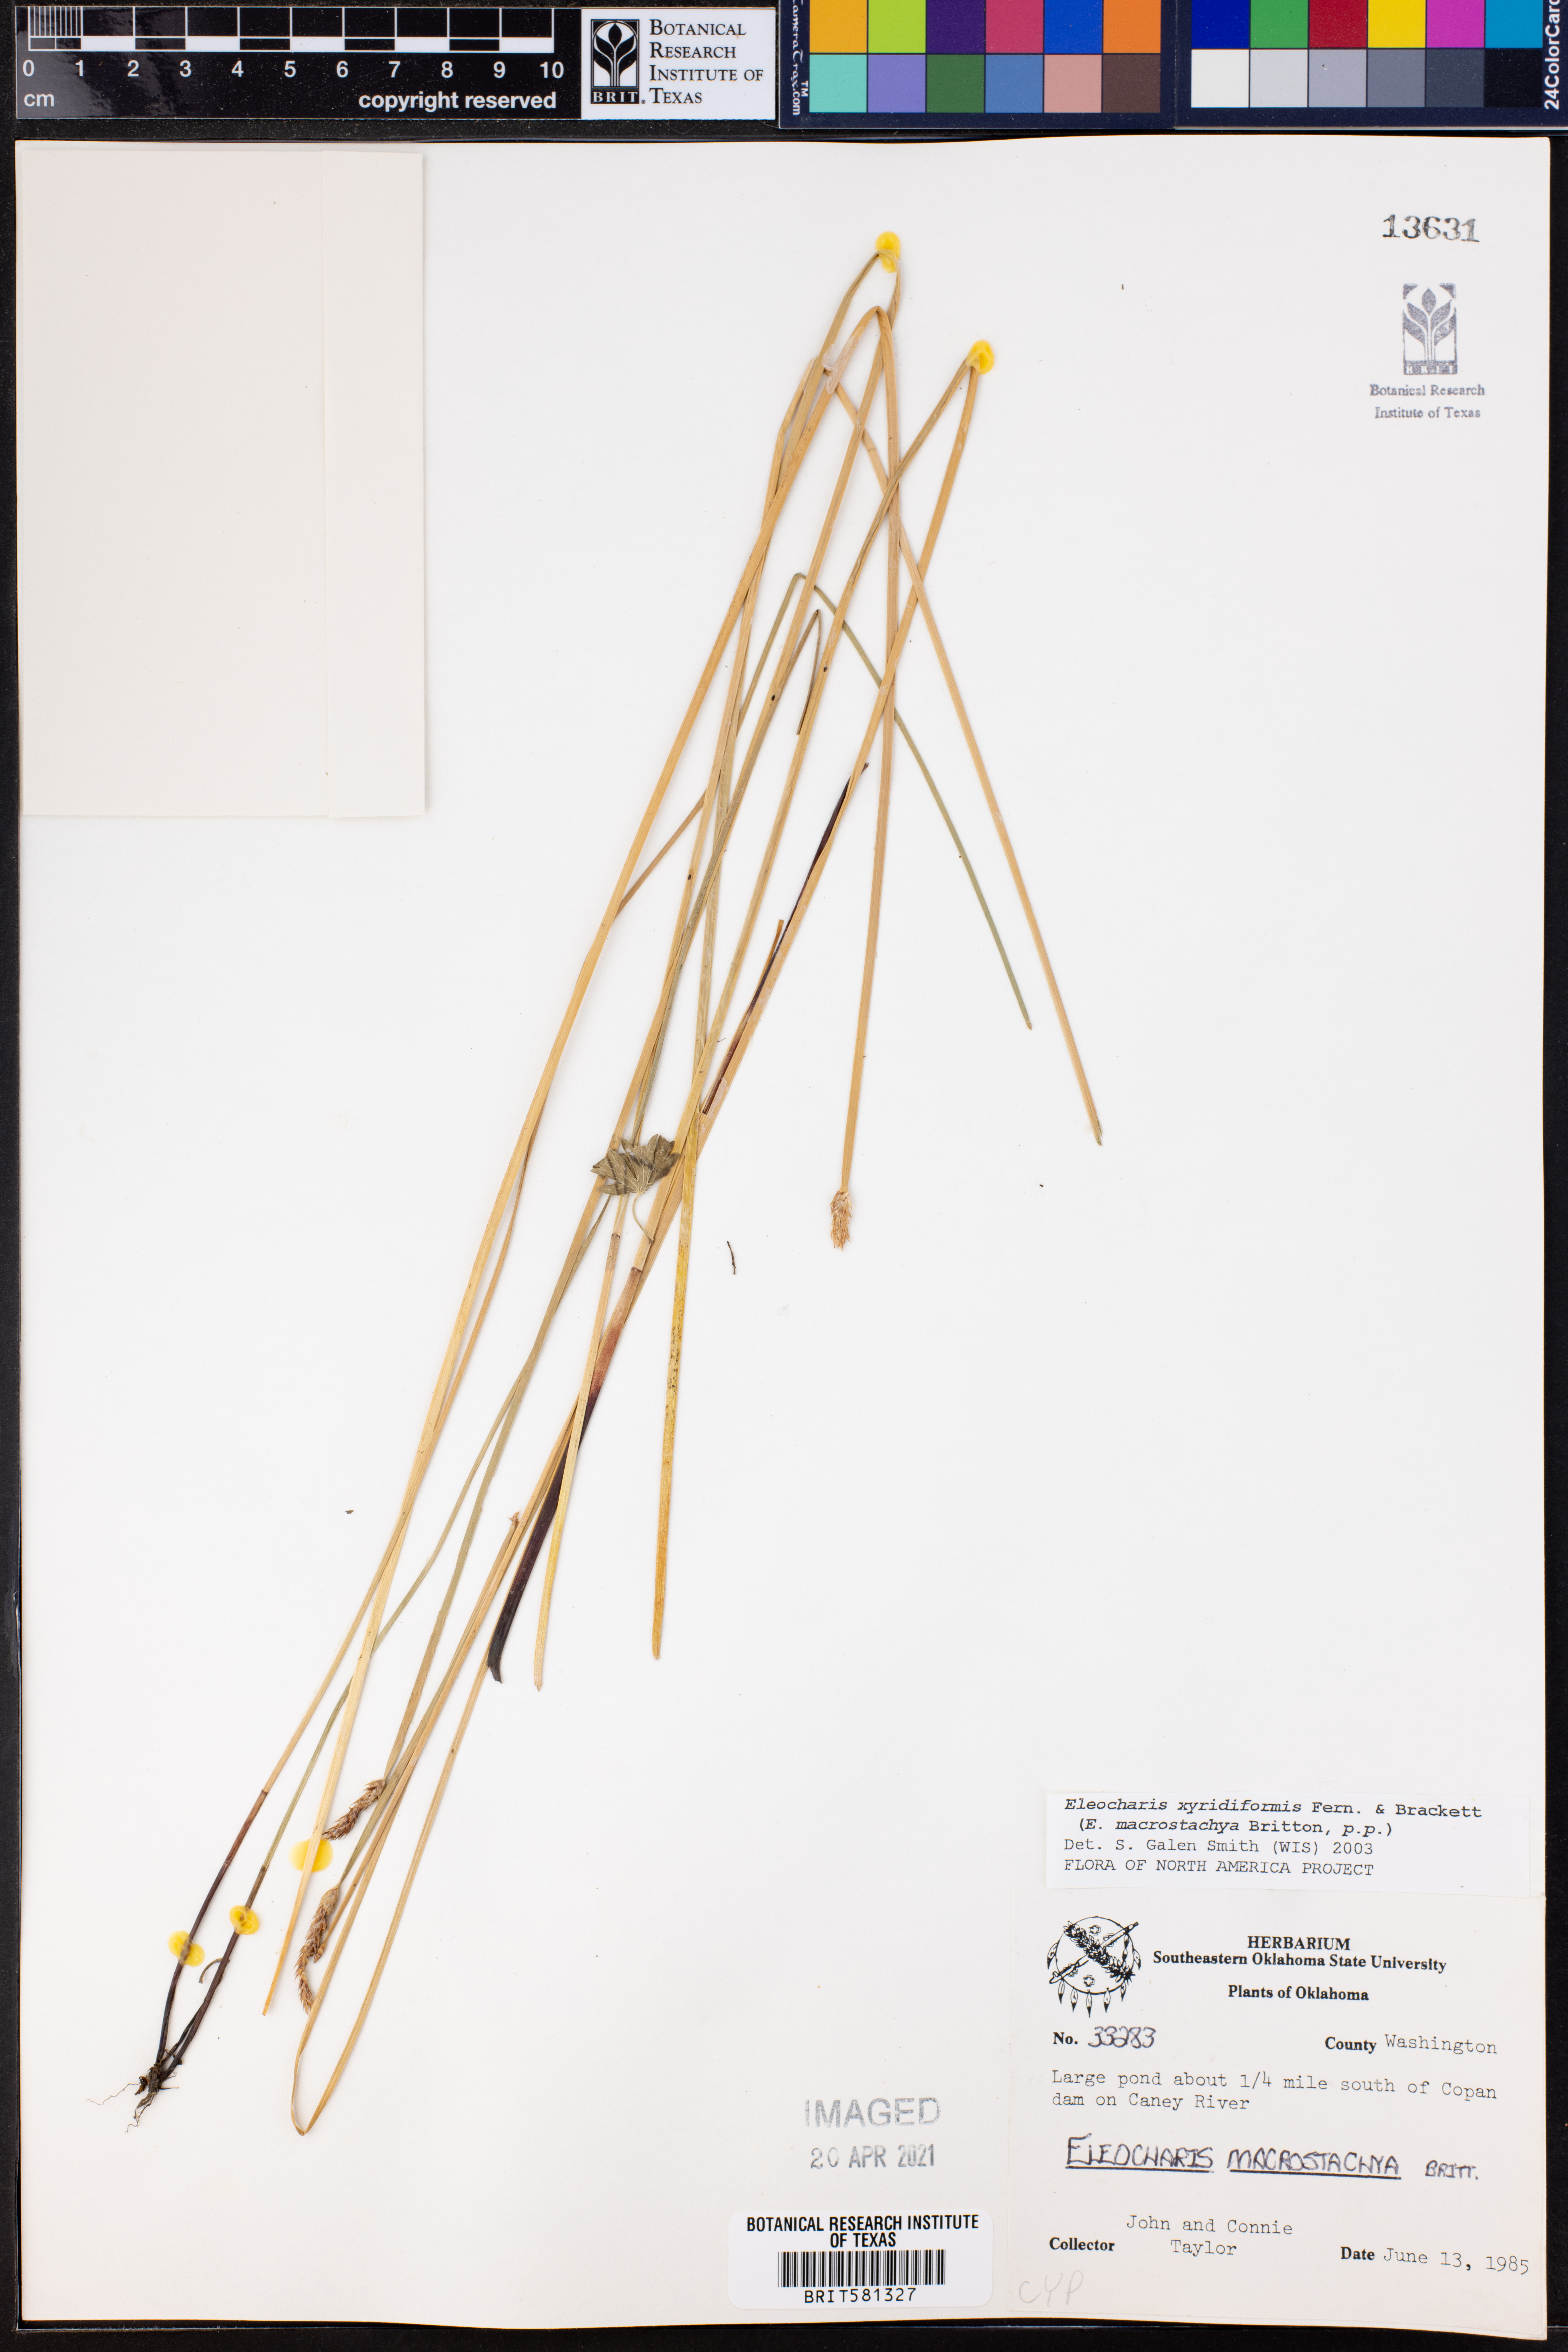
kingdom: Plantae
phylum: Tracheophyta
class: Liliopsida
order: Poales
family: Cyperaceae
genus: Eleocharis
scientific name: Eleocharis macrostachya
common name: Pale spikerush
